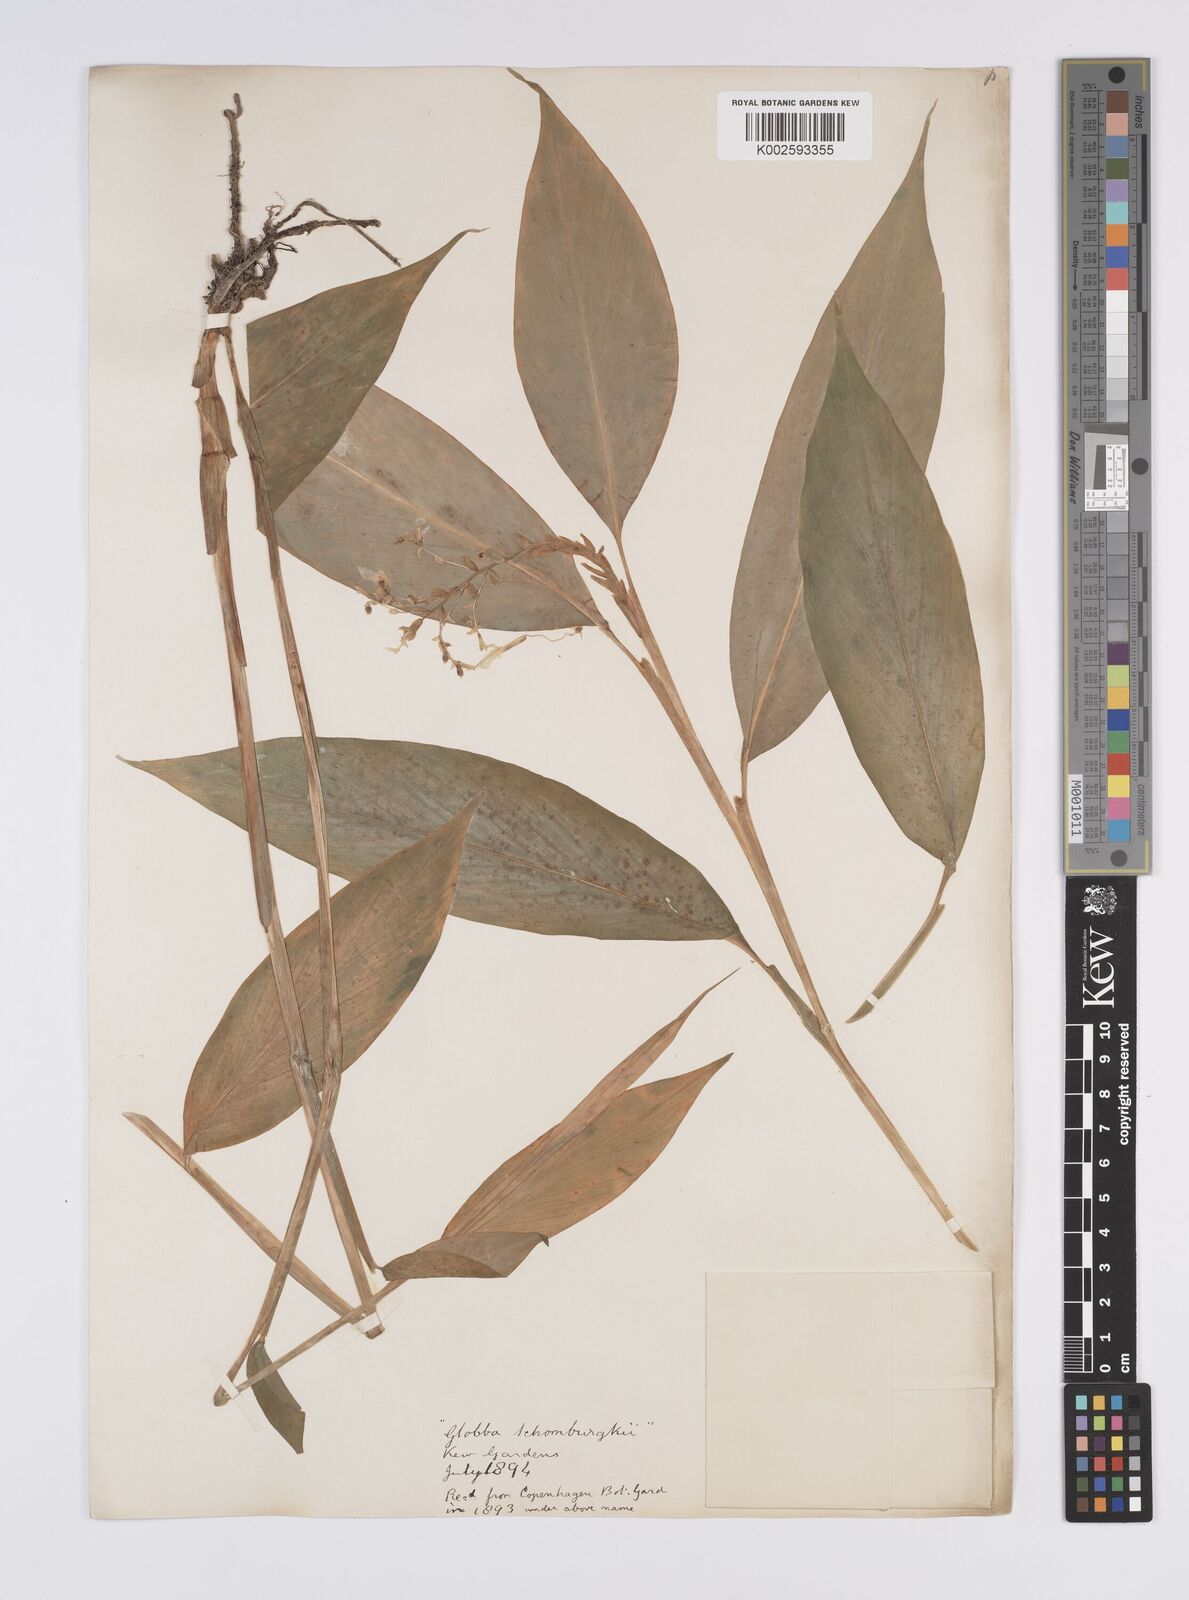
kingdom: Plantae
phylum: Tracheophyta
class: Liliopsida
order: Zingiberales
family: Zingiberaceae
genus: Globba
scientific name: Globba schomburgkii
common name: Dancing girl ginger
